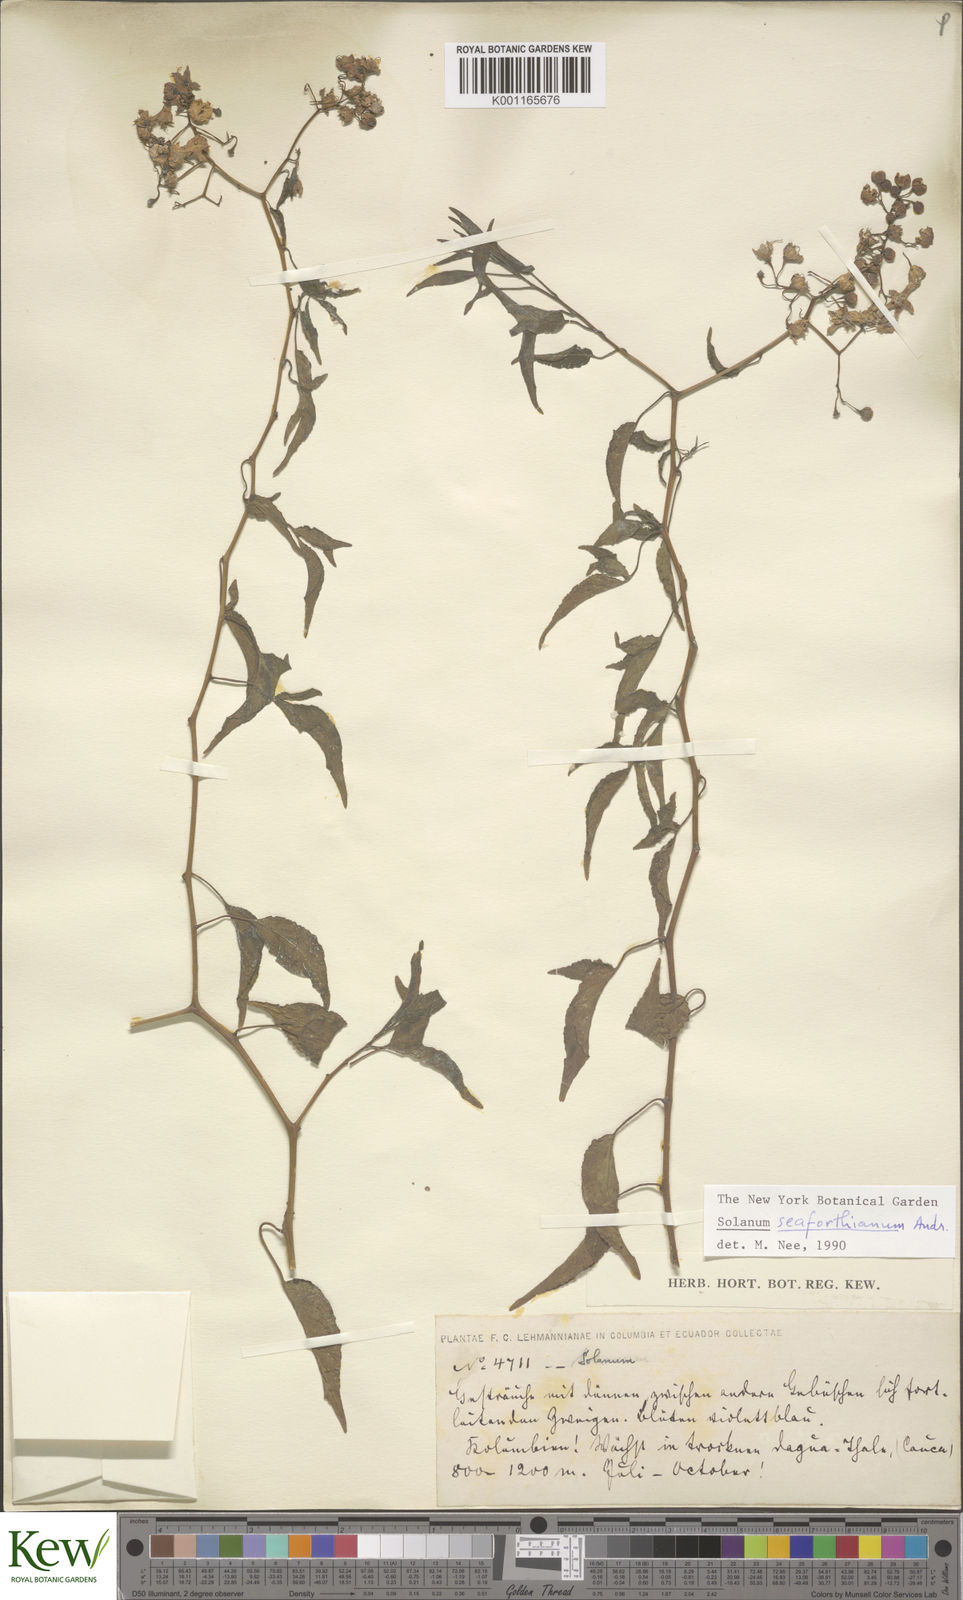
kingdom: Plantae
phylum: Tracheophyta
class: Magnoliopsida
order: Solanales
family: Solanaceae
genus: Solanum
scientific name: Solanum seaforthianum
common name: Brazilian nightshade
